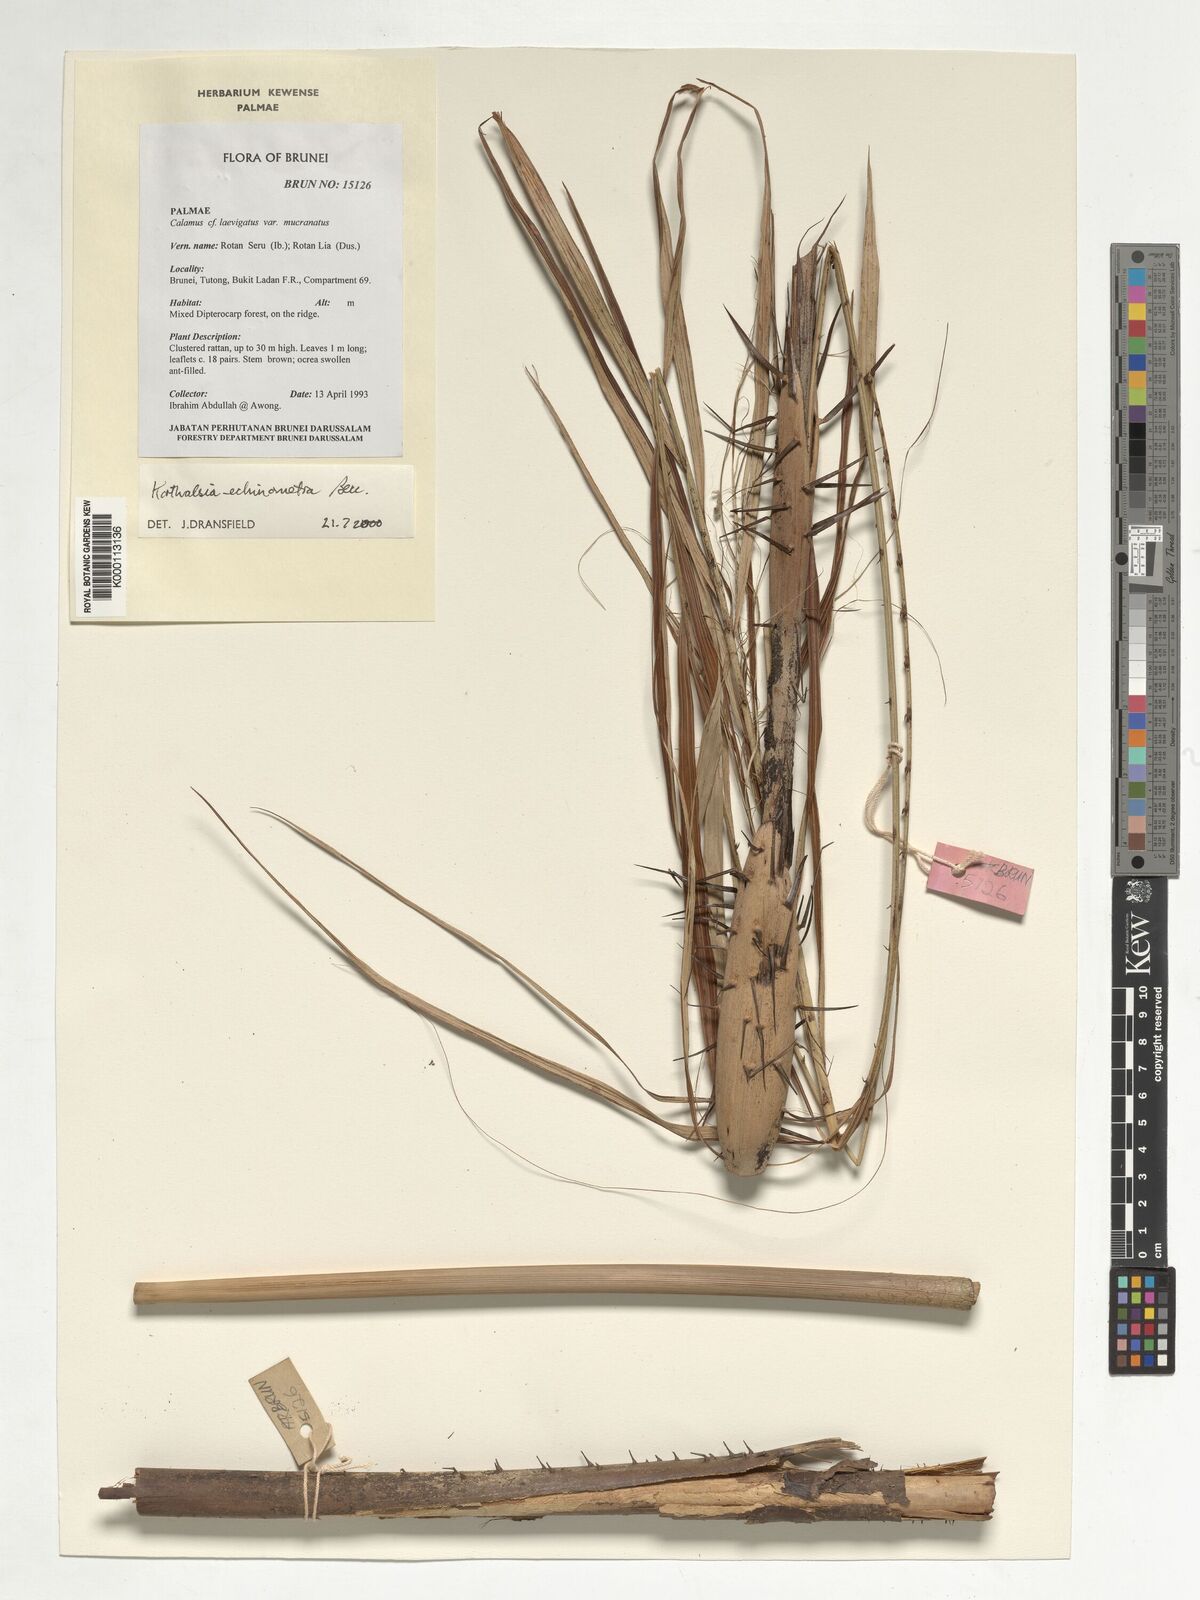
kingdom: Plantae
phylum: Tracheophyta
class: Liliopsida
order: Arecales
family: Arecaceae
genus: Korthalsia
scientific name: Korthalsia echinometra
